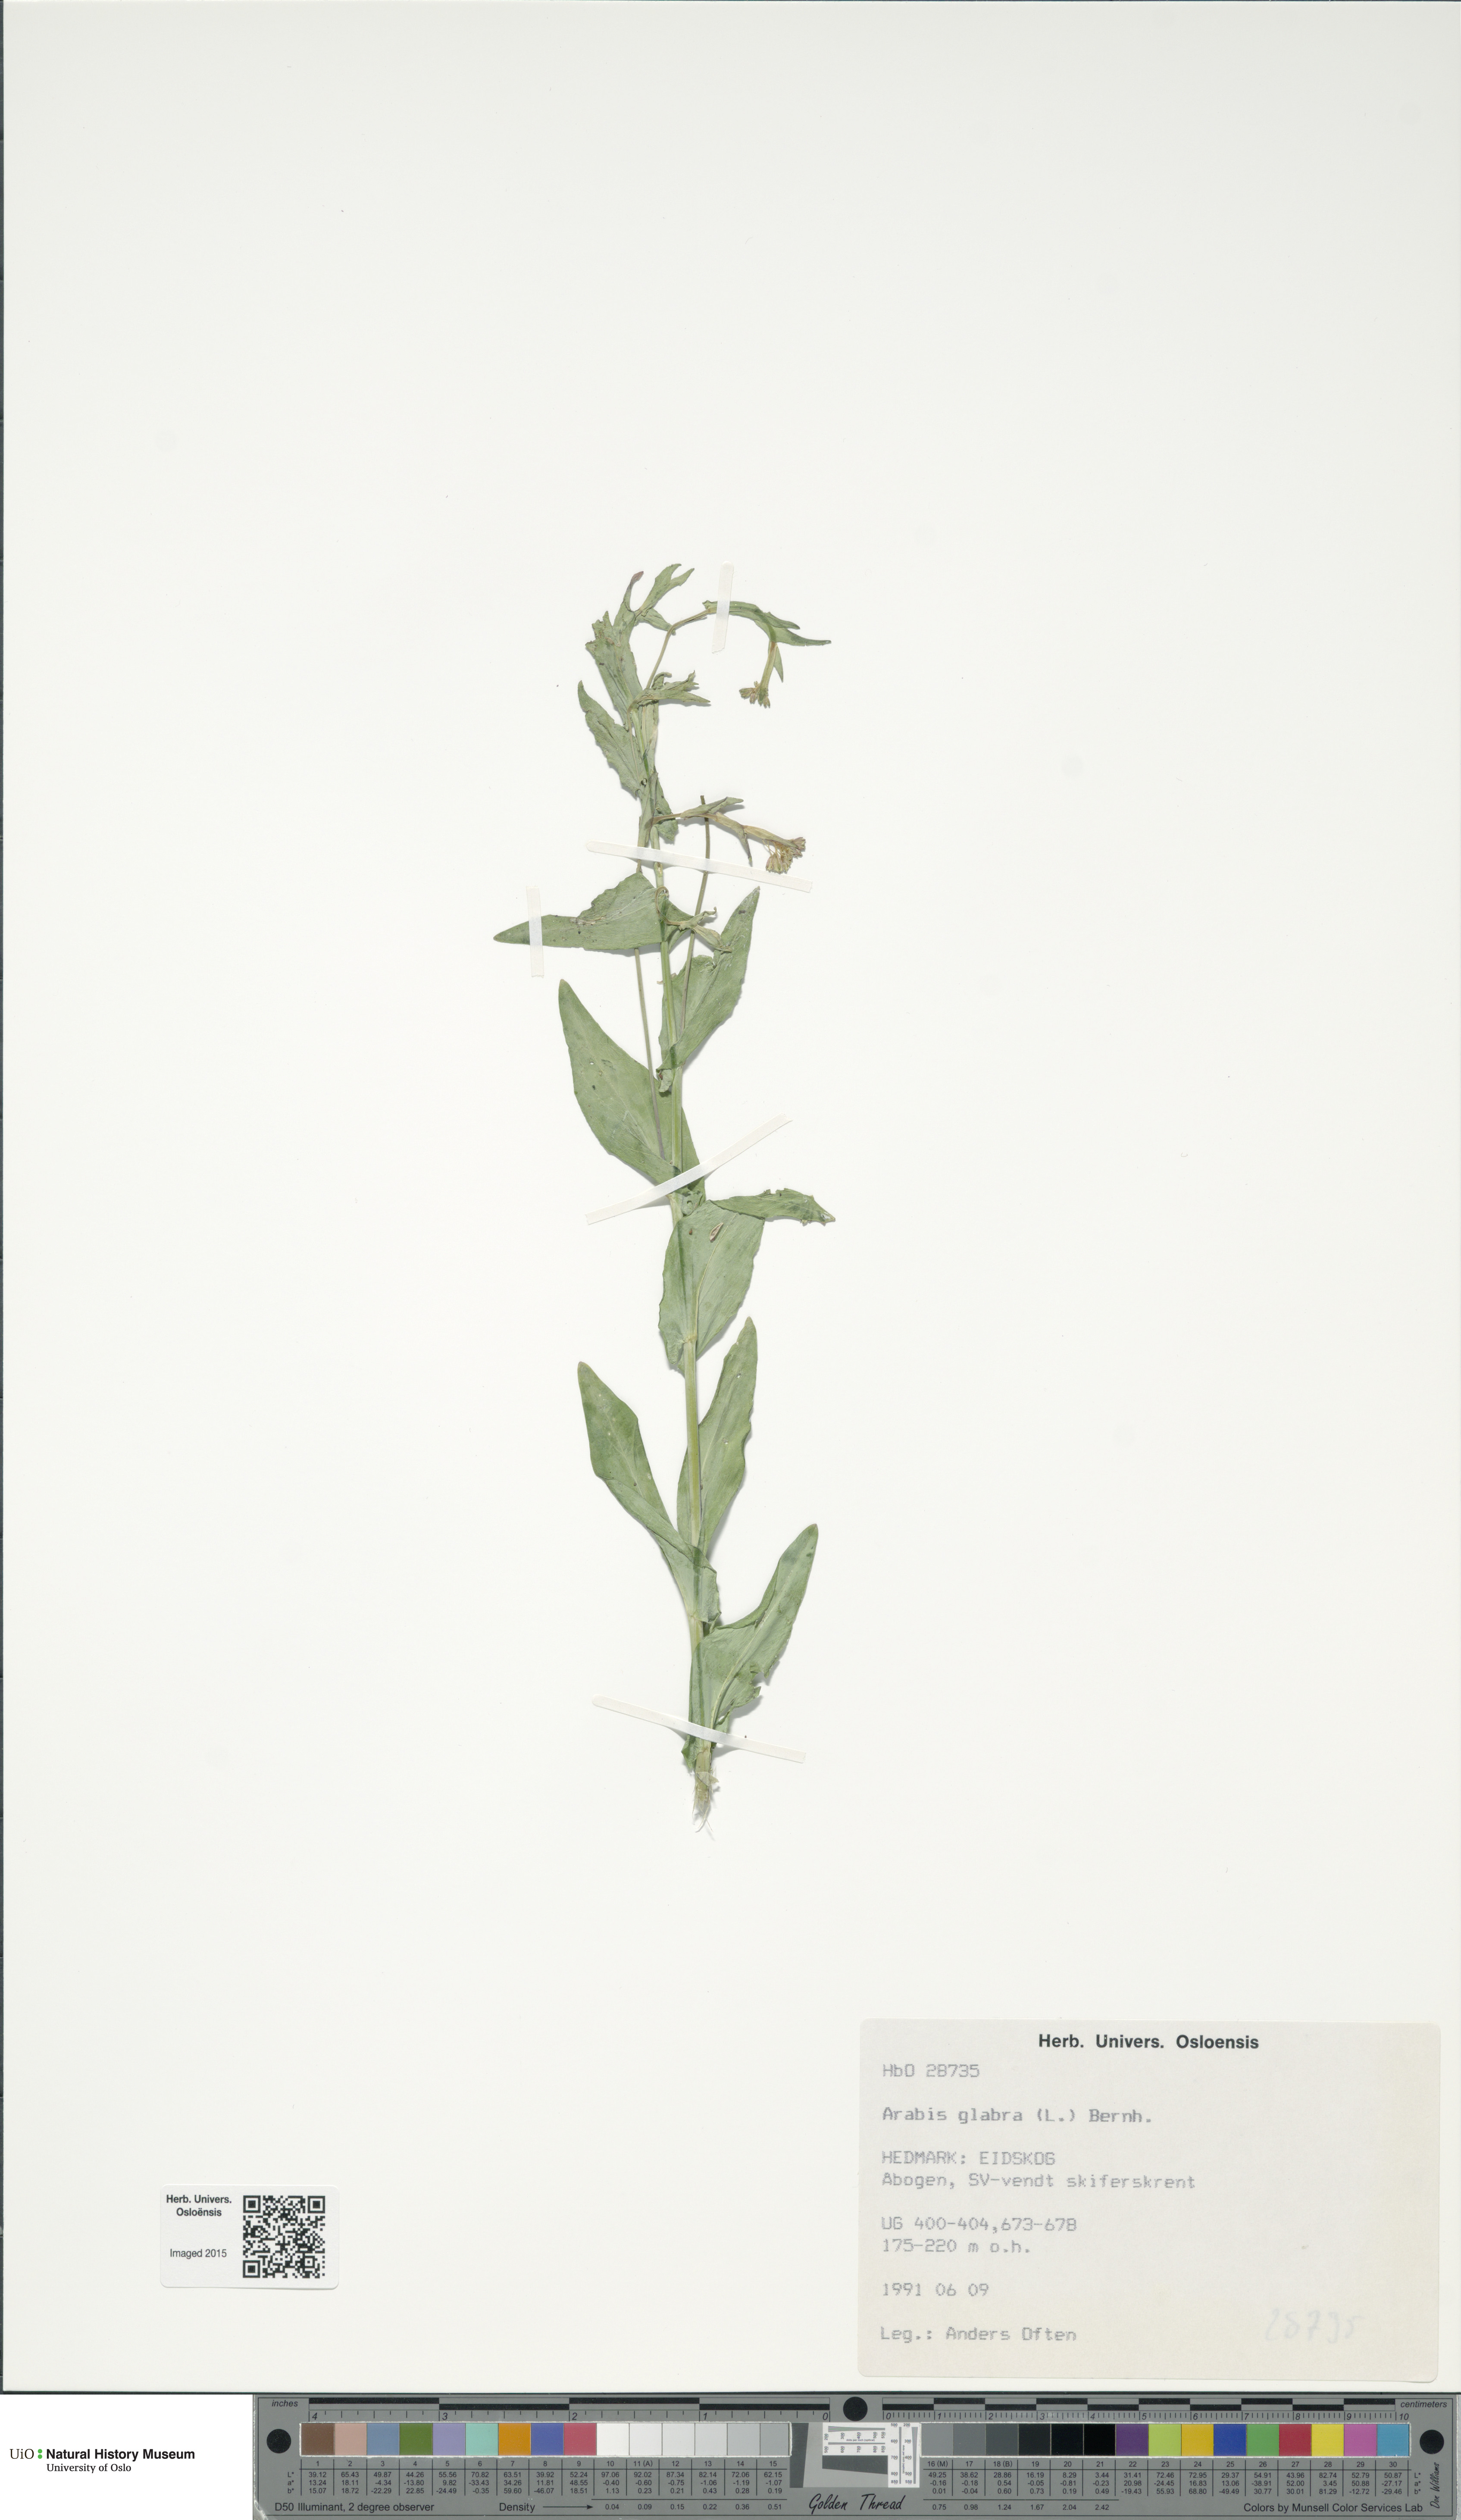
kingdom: Plantae
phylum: Tracheophyta
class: Magnoliopsida
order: Brassicales
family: Brassicaceae
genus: Turritis
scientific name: Turritis glabra
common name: Tower rockcress
